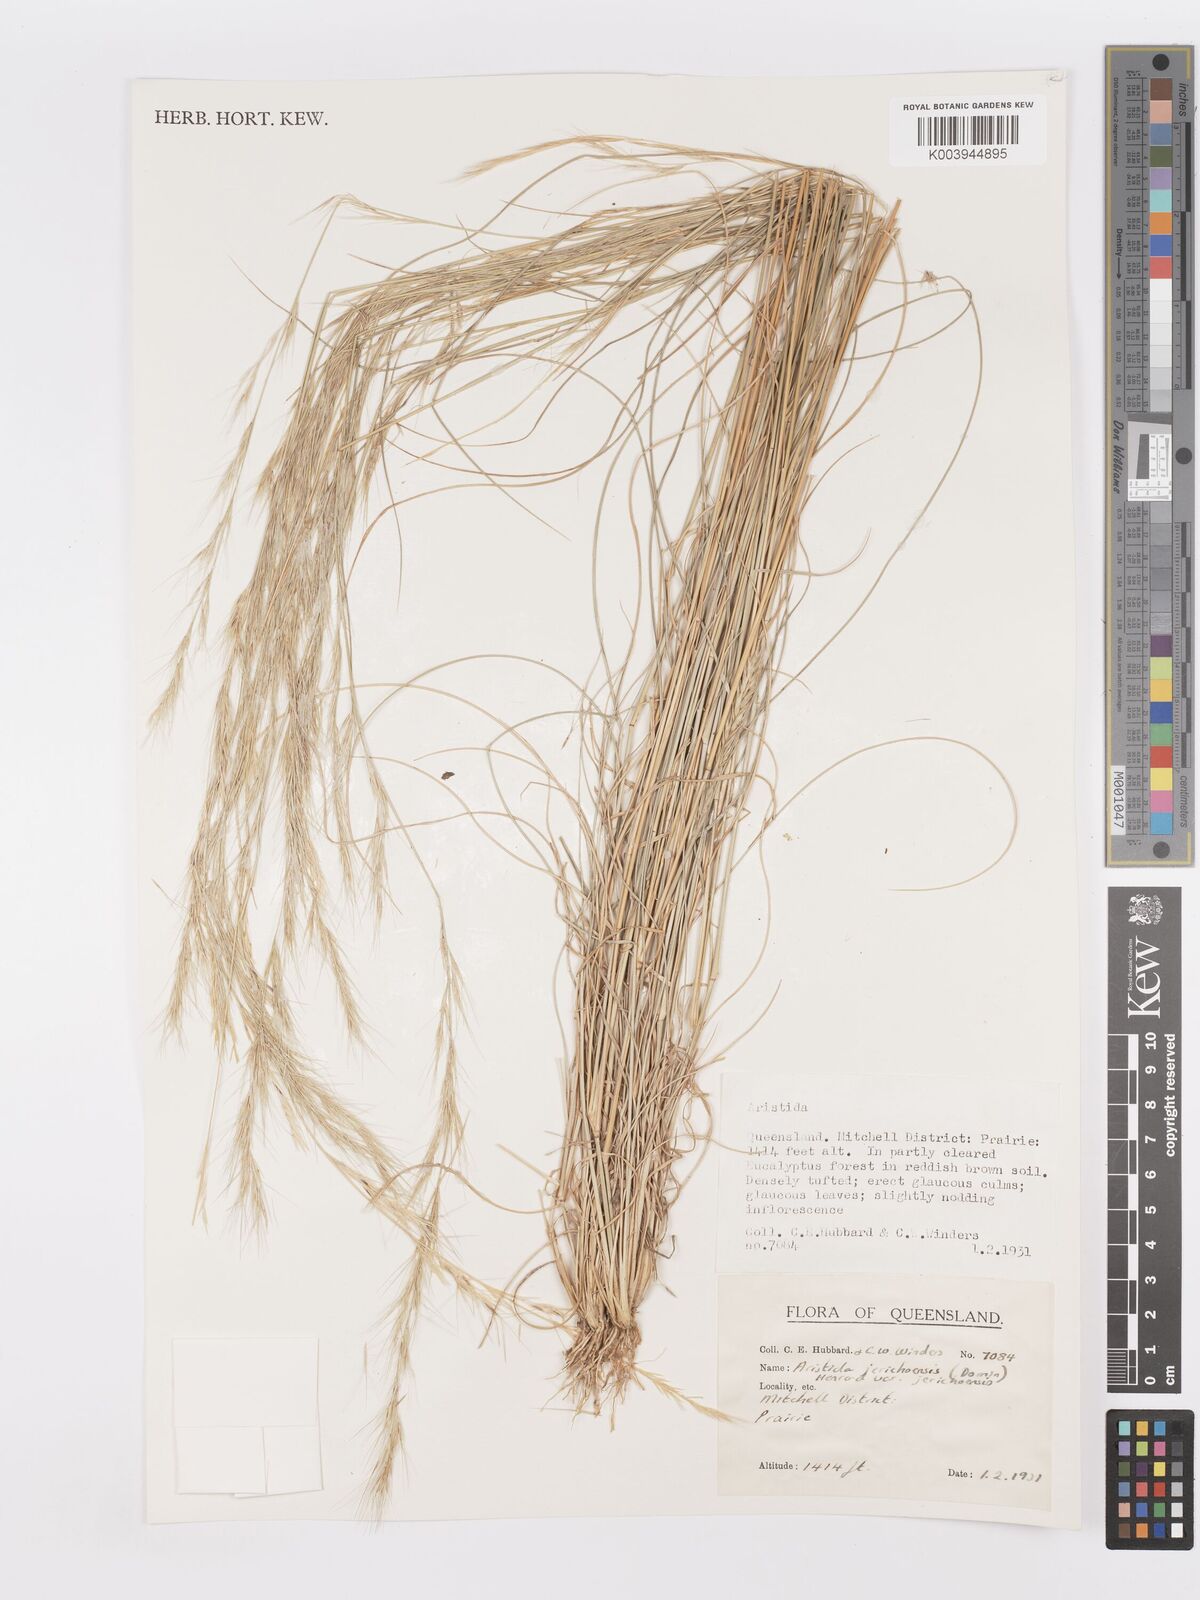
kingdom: Plantae
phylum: Tracheophyta
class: Liliopsida
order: Poales
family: Poaceae
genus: Aristida
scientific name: Aristida jerichoensis
